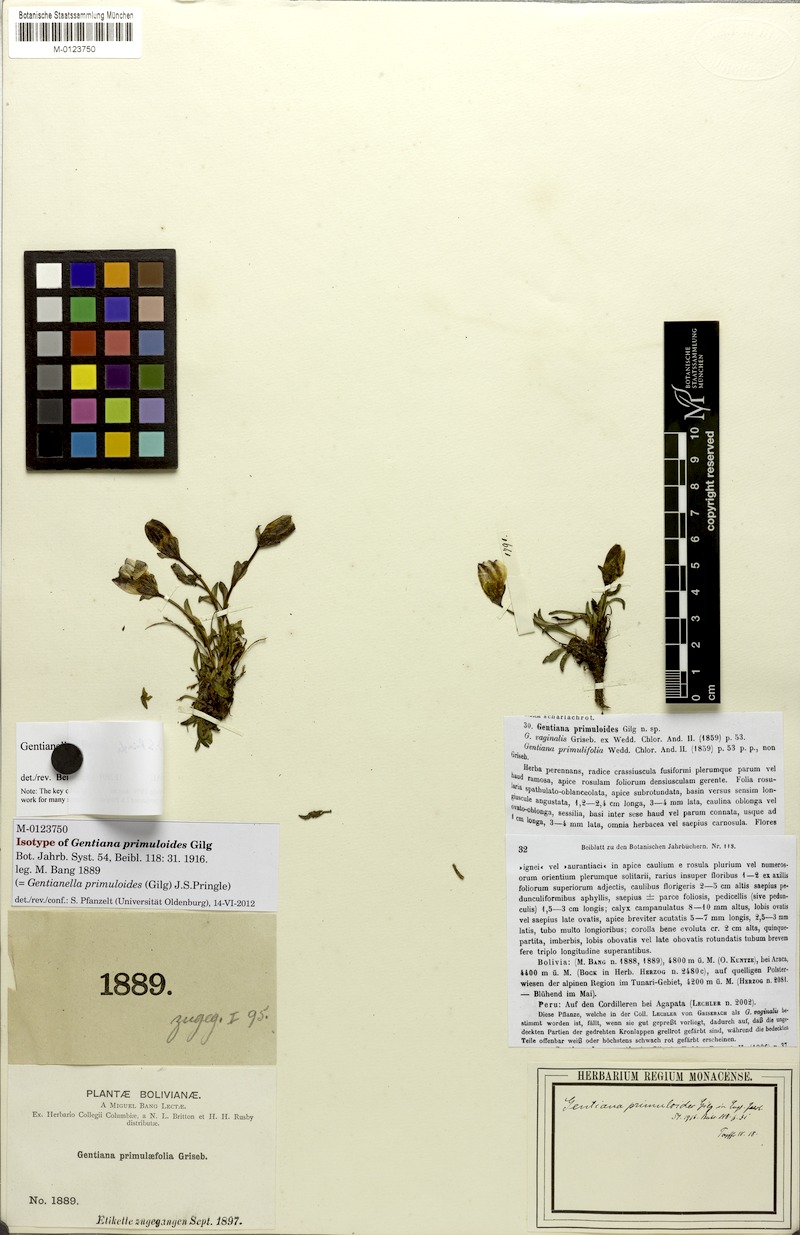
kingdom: Plantae
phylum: Tracheophyta
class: Magnoliopsida
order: Gentianales
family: Gentianaceae
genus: Gentianella
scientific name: Gentianella primuloides
